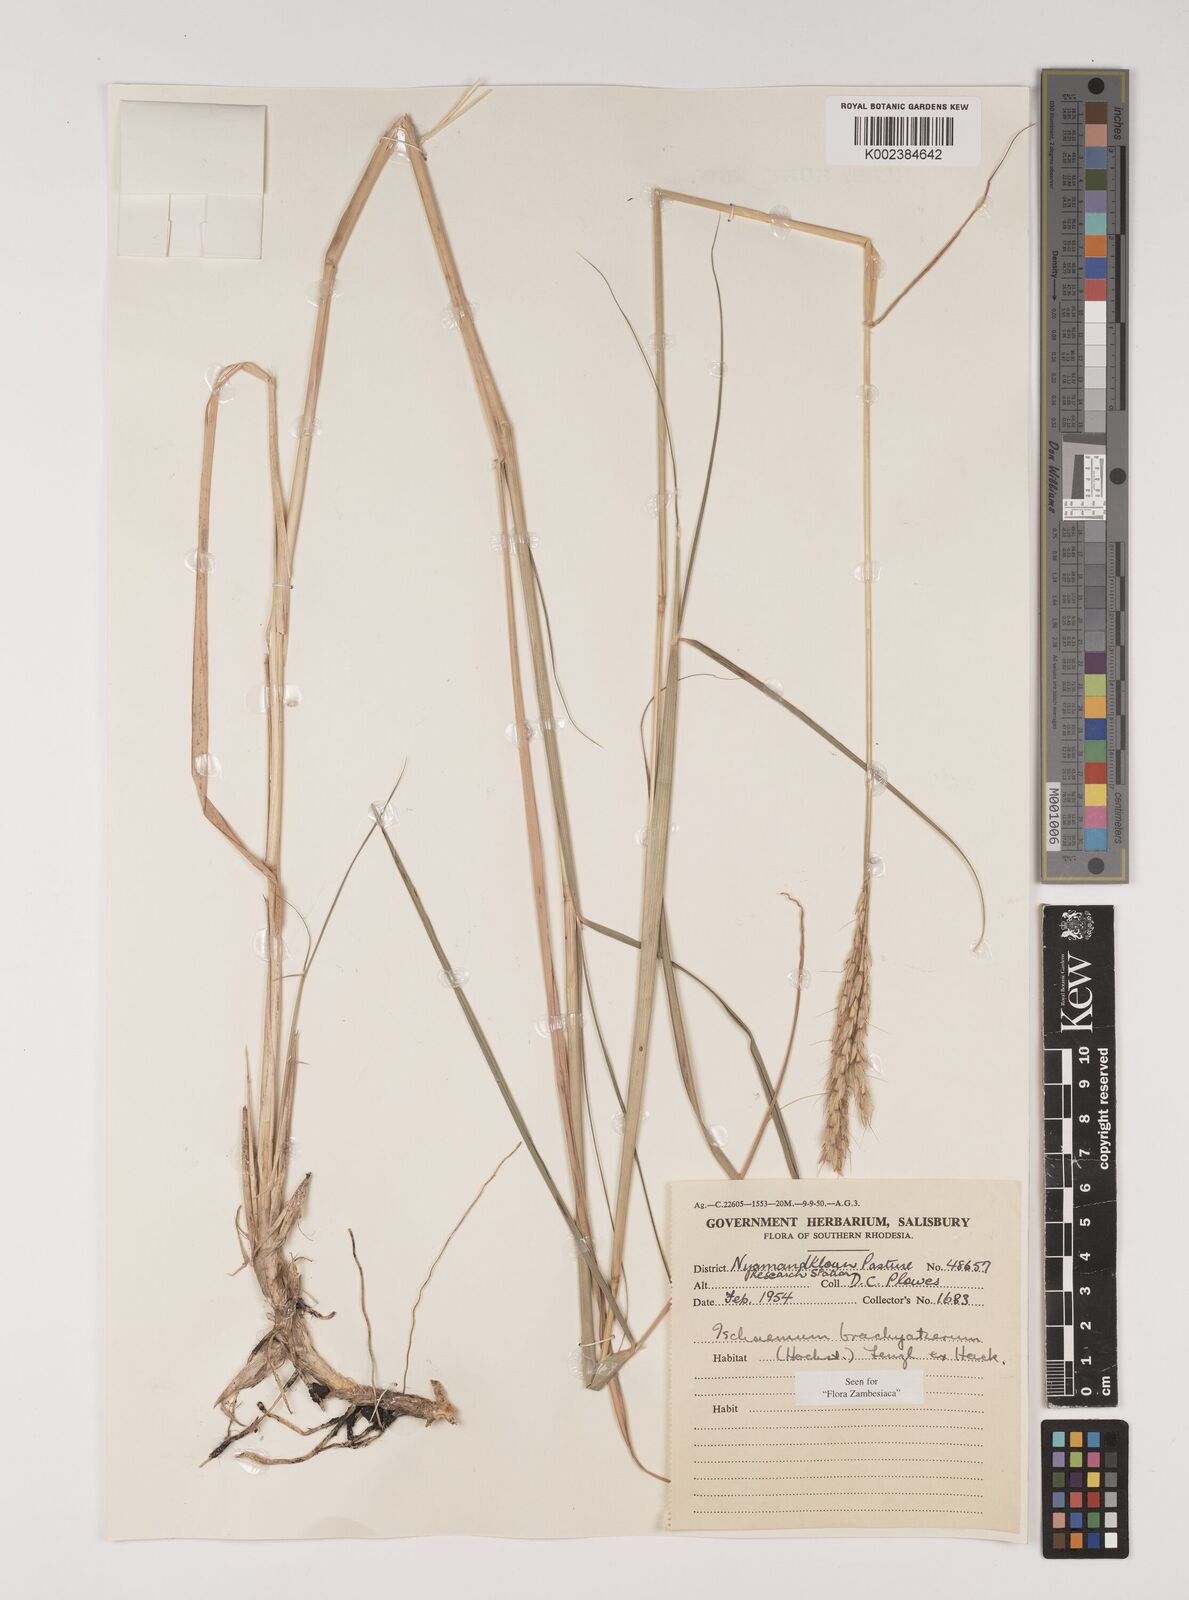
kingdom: Plantae
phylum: Tracheophyta
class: Liliopsida
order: Poales
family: Poaceae
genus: Ischaemum
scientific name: Ischaemum afrum
